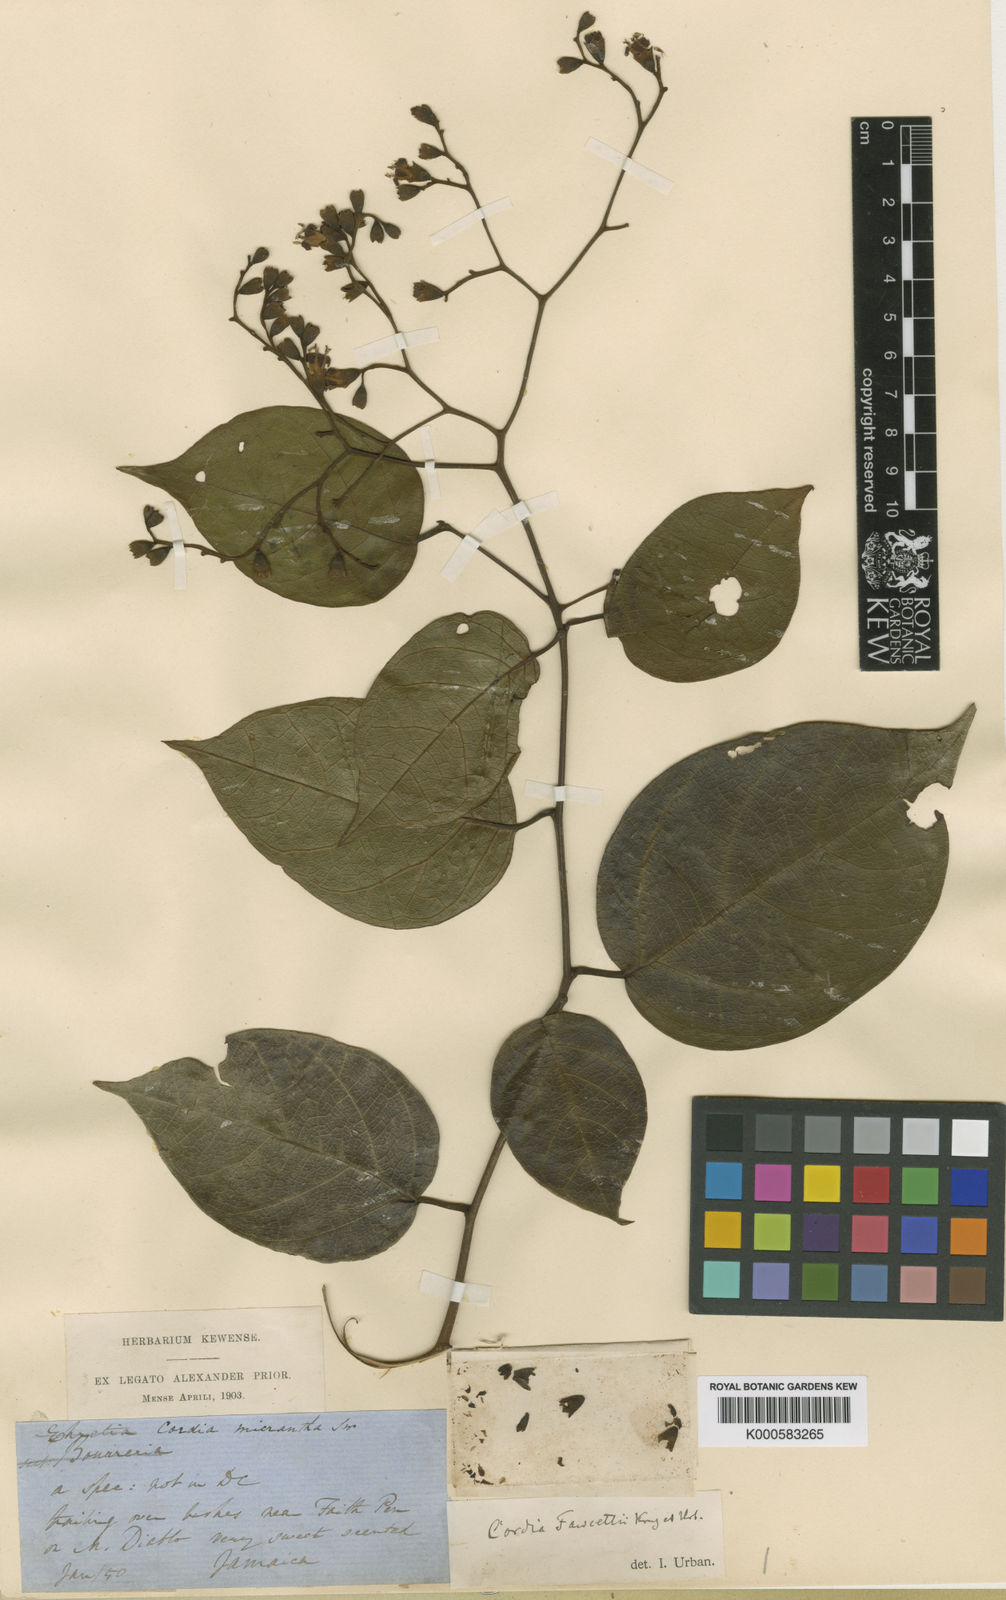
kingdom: Plantae
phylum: Tracheophyta
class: Magnoliopsida
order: Boraginales
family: Cordiaceae
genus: Cordia
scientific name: Cordia elliptica
